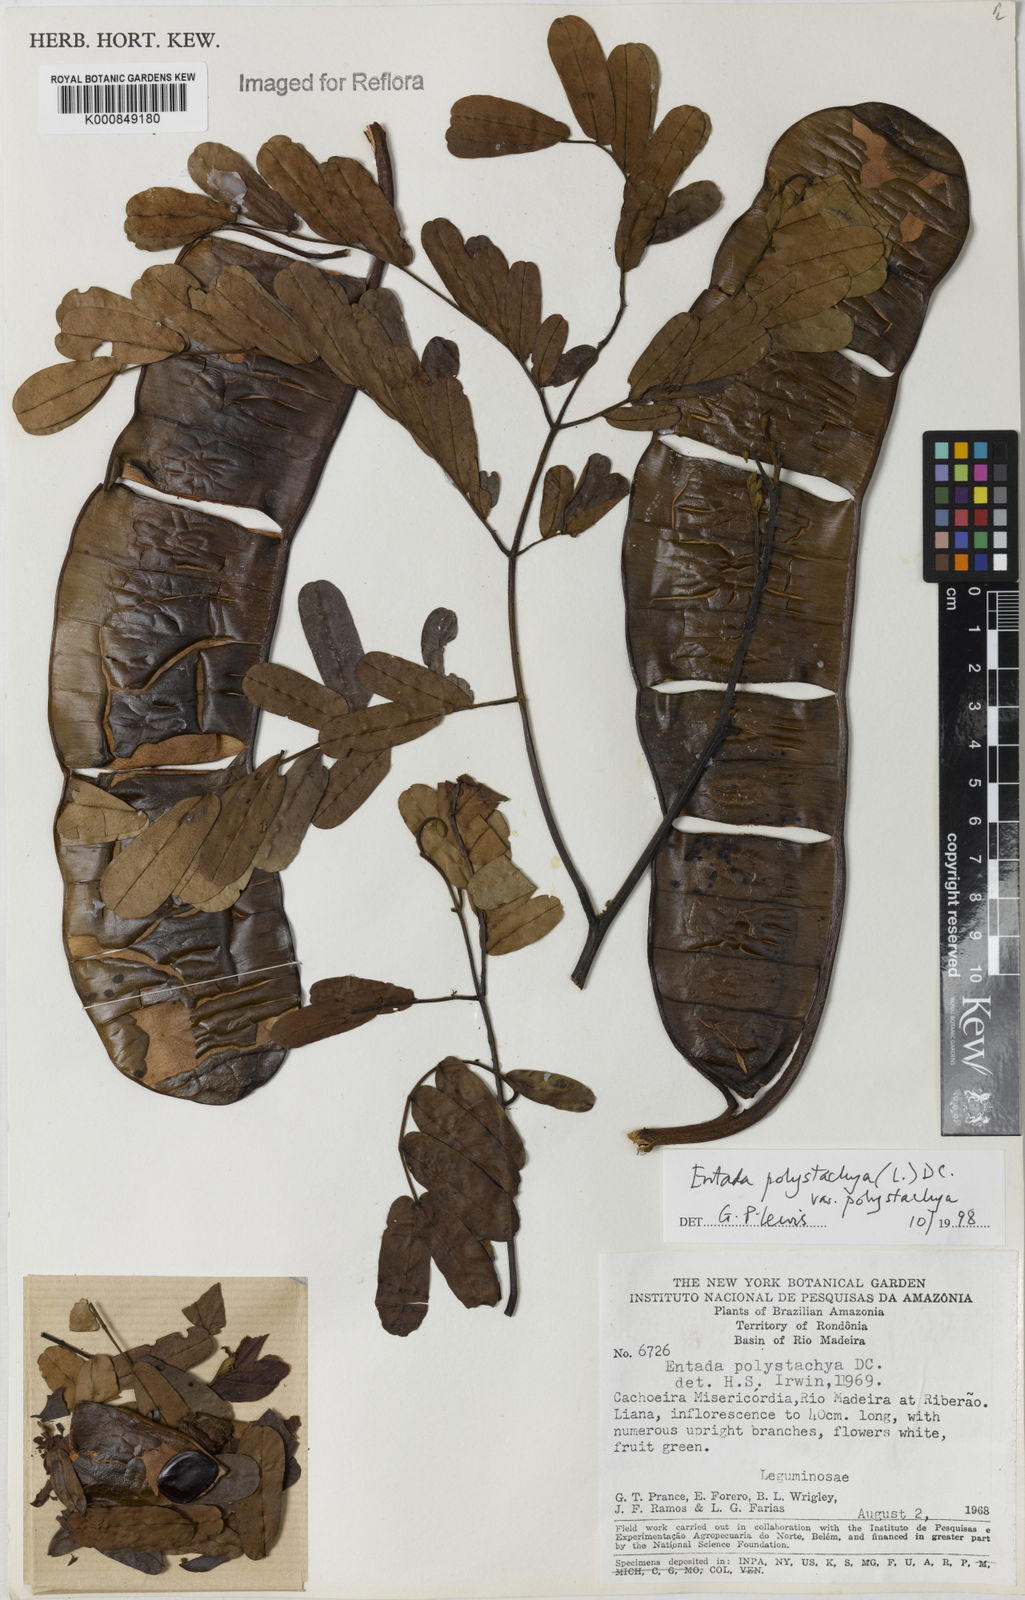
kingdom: Plantae
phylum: Tracheophyta
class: Magnoliopsida
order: Fabales
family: Fabaceae
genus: Entada
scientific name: Entada polystachya
